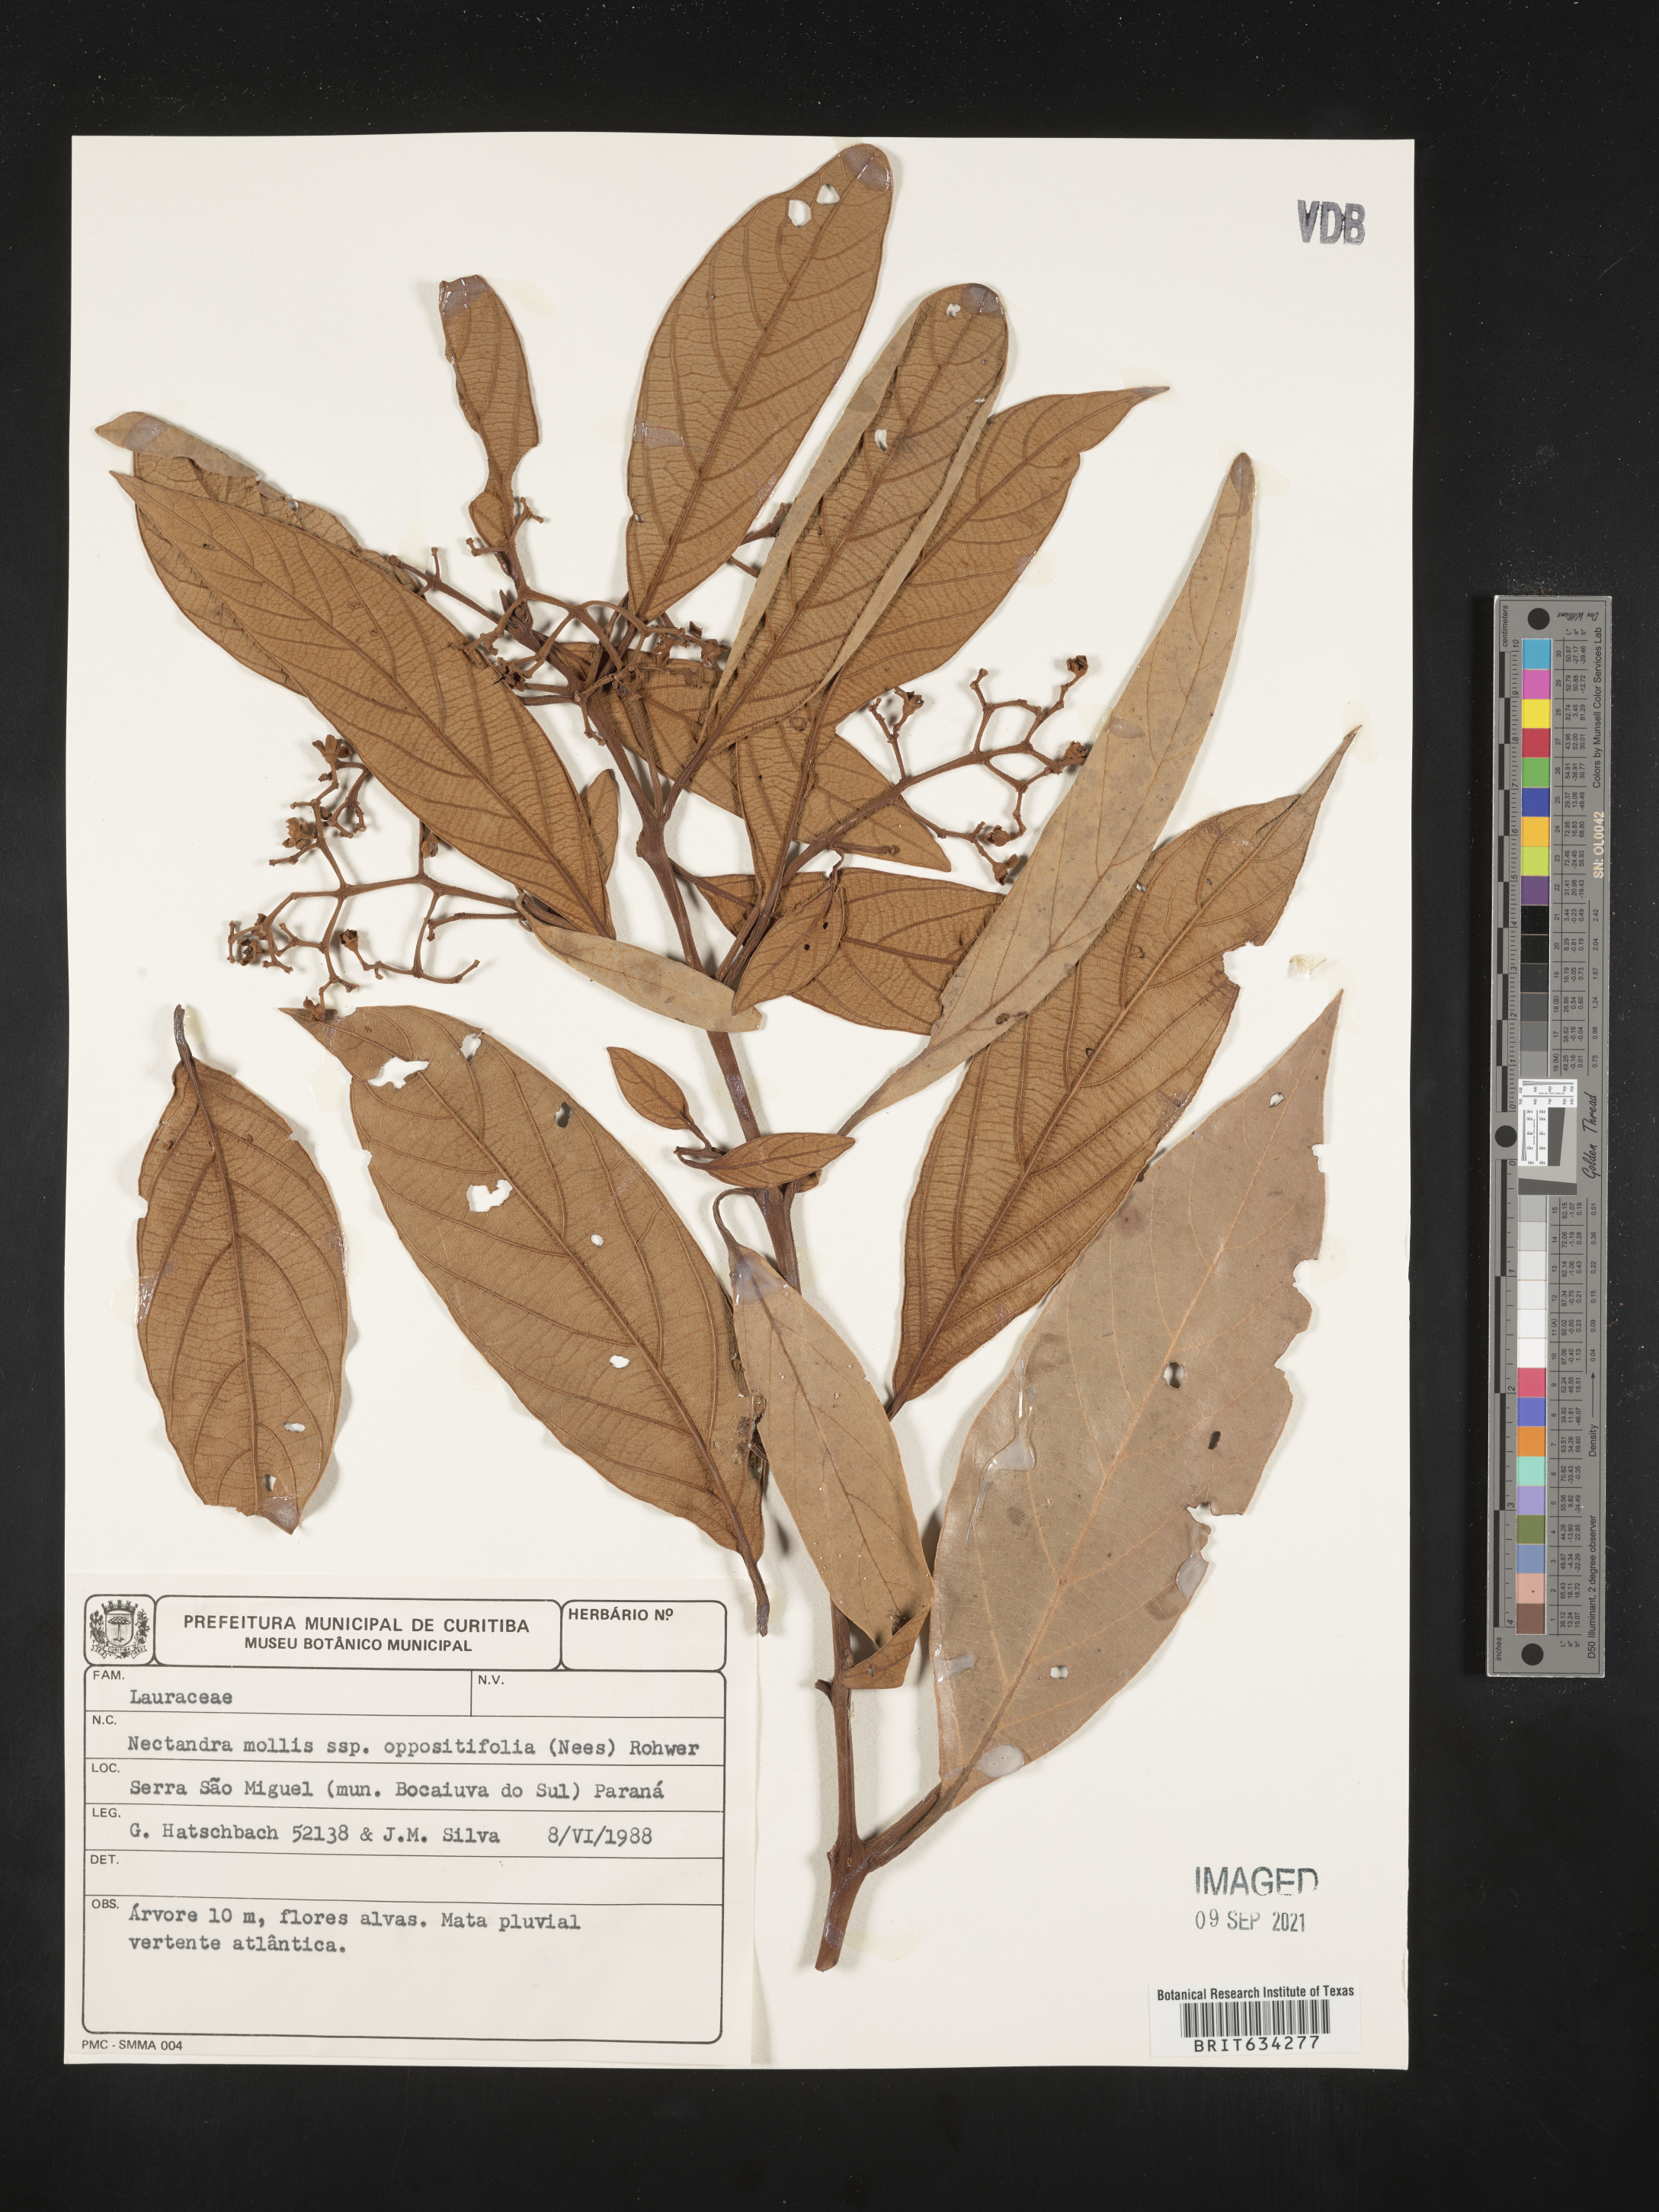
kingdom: Plantae
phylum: Tracheophyta
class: Magnoliopsida
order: Laurales
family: Lauraceae
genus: Nectandra
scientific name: Nectandra
